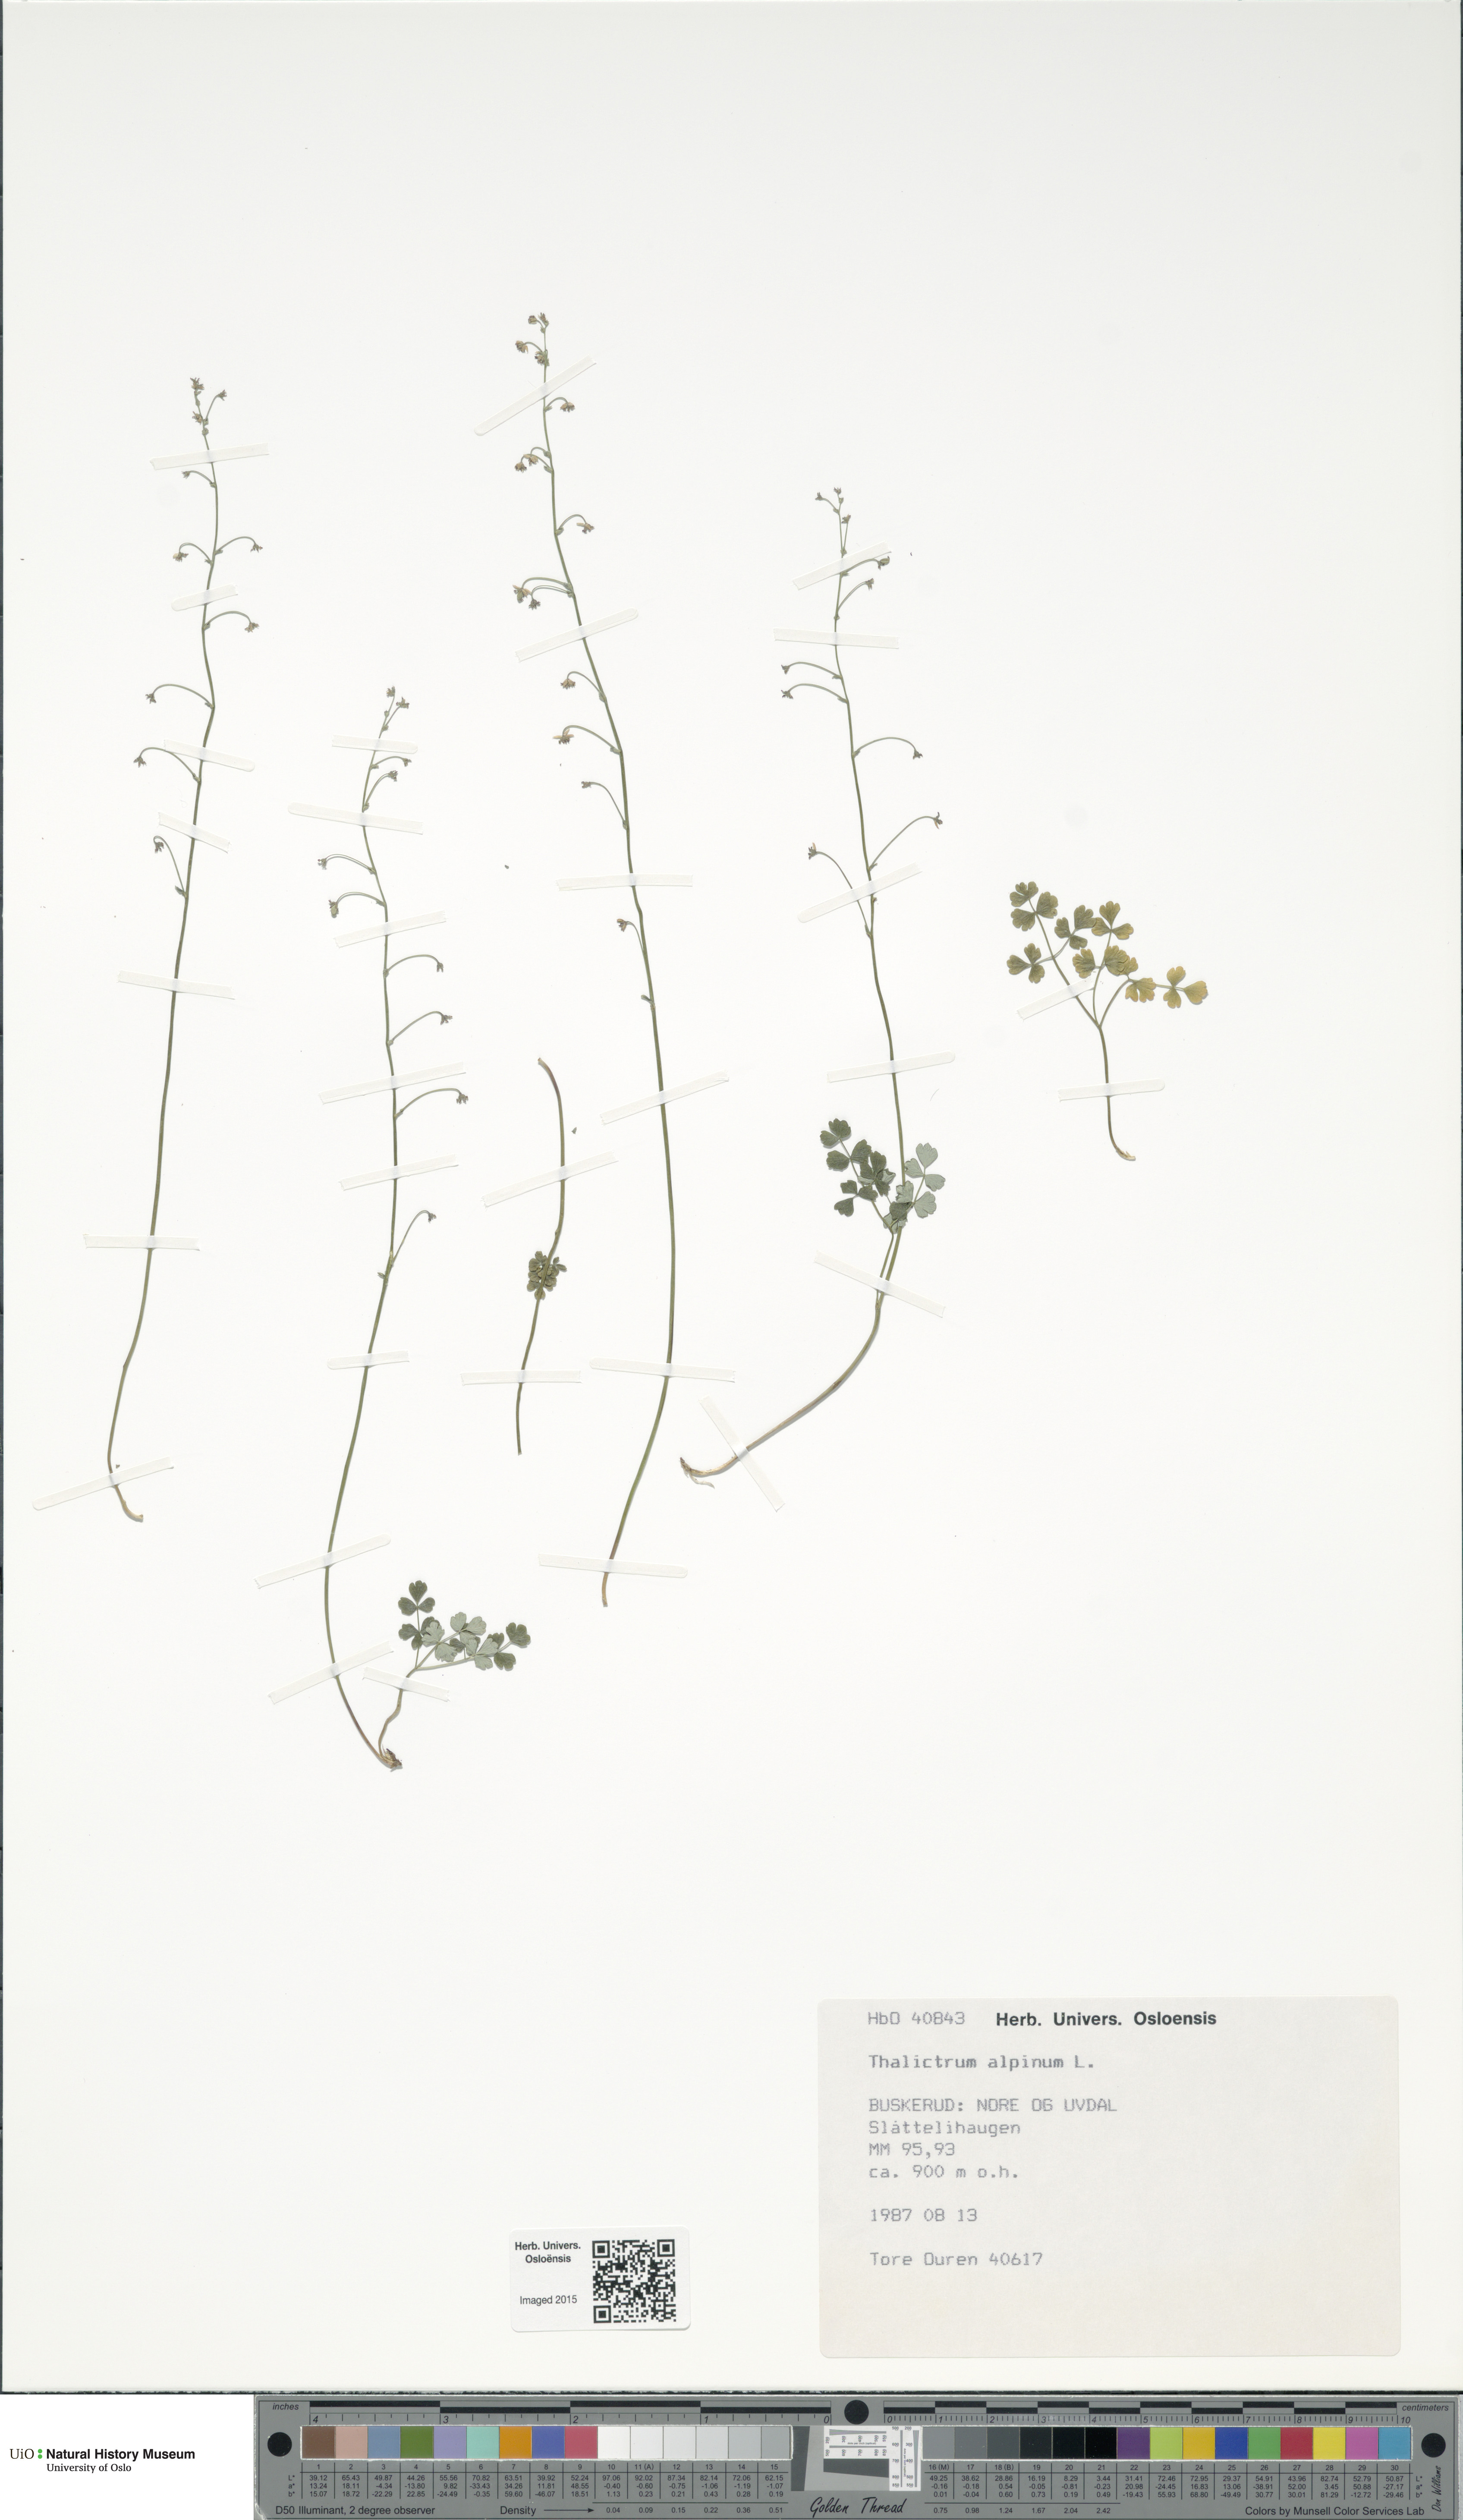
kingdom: Plantae
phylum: Tracheophyta
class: Magnoliopsida
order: Ranunculales
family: Ranunculaceae
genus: Thalictrum
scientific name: Thalictrum alpinum
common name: Alpine meadow-rue
